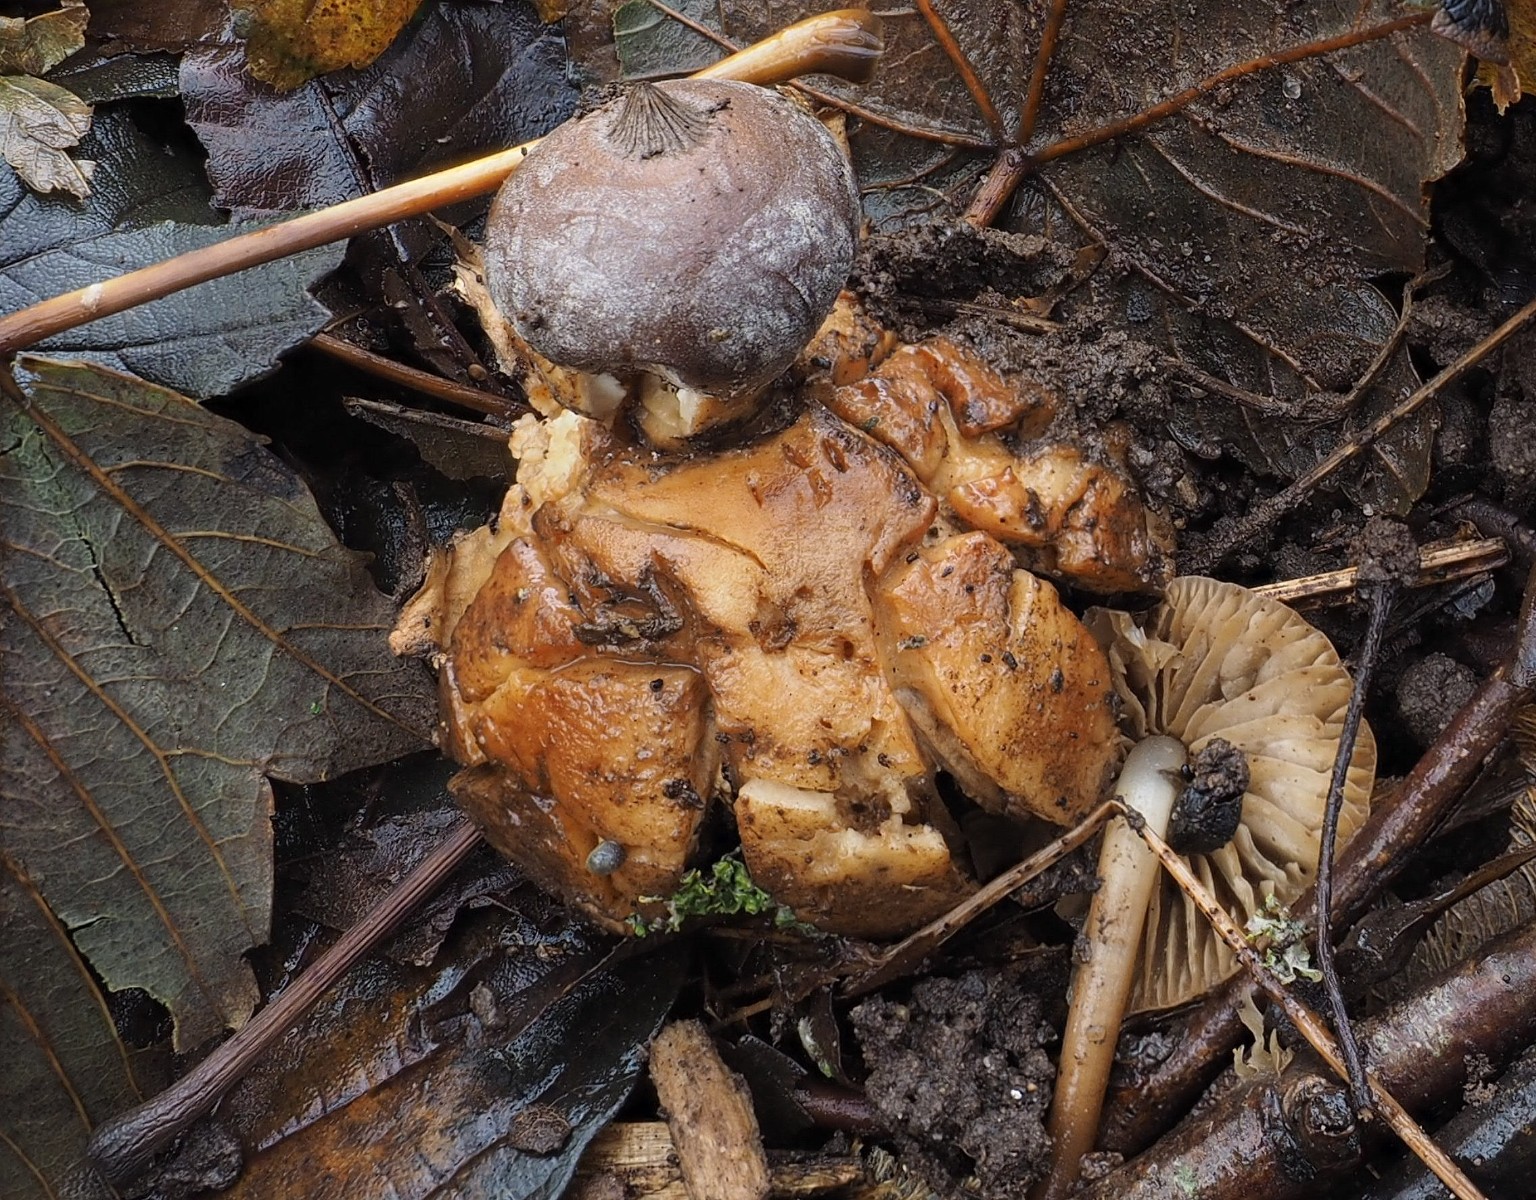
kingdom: Fungi
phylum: Basidiomycota
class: Agaricomycetes
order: Geastrales
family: Geastraceae
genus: Geastrum
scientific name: Geastrum
